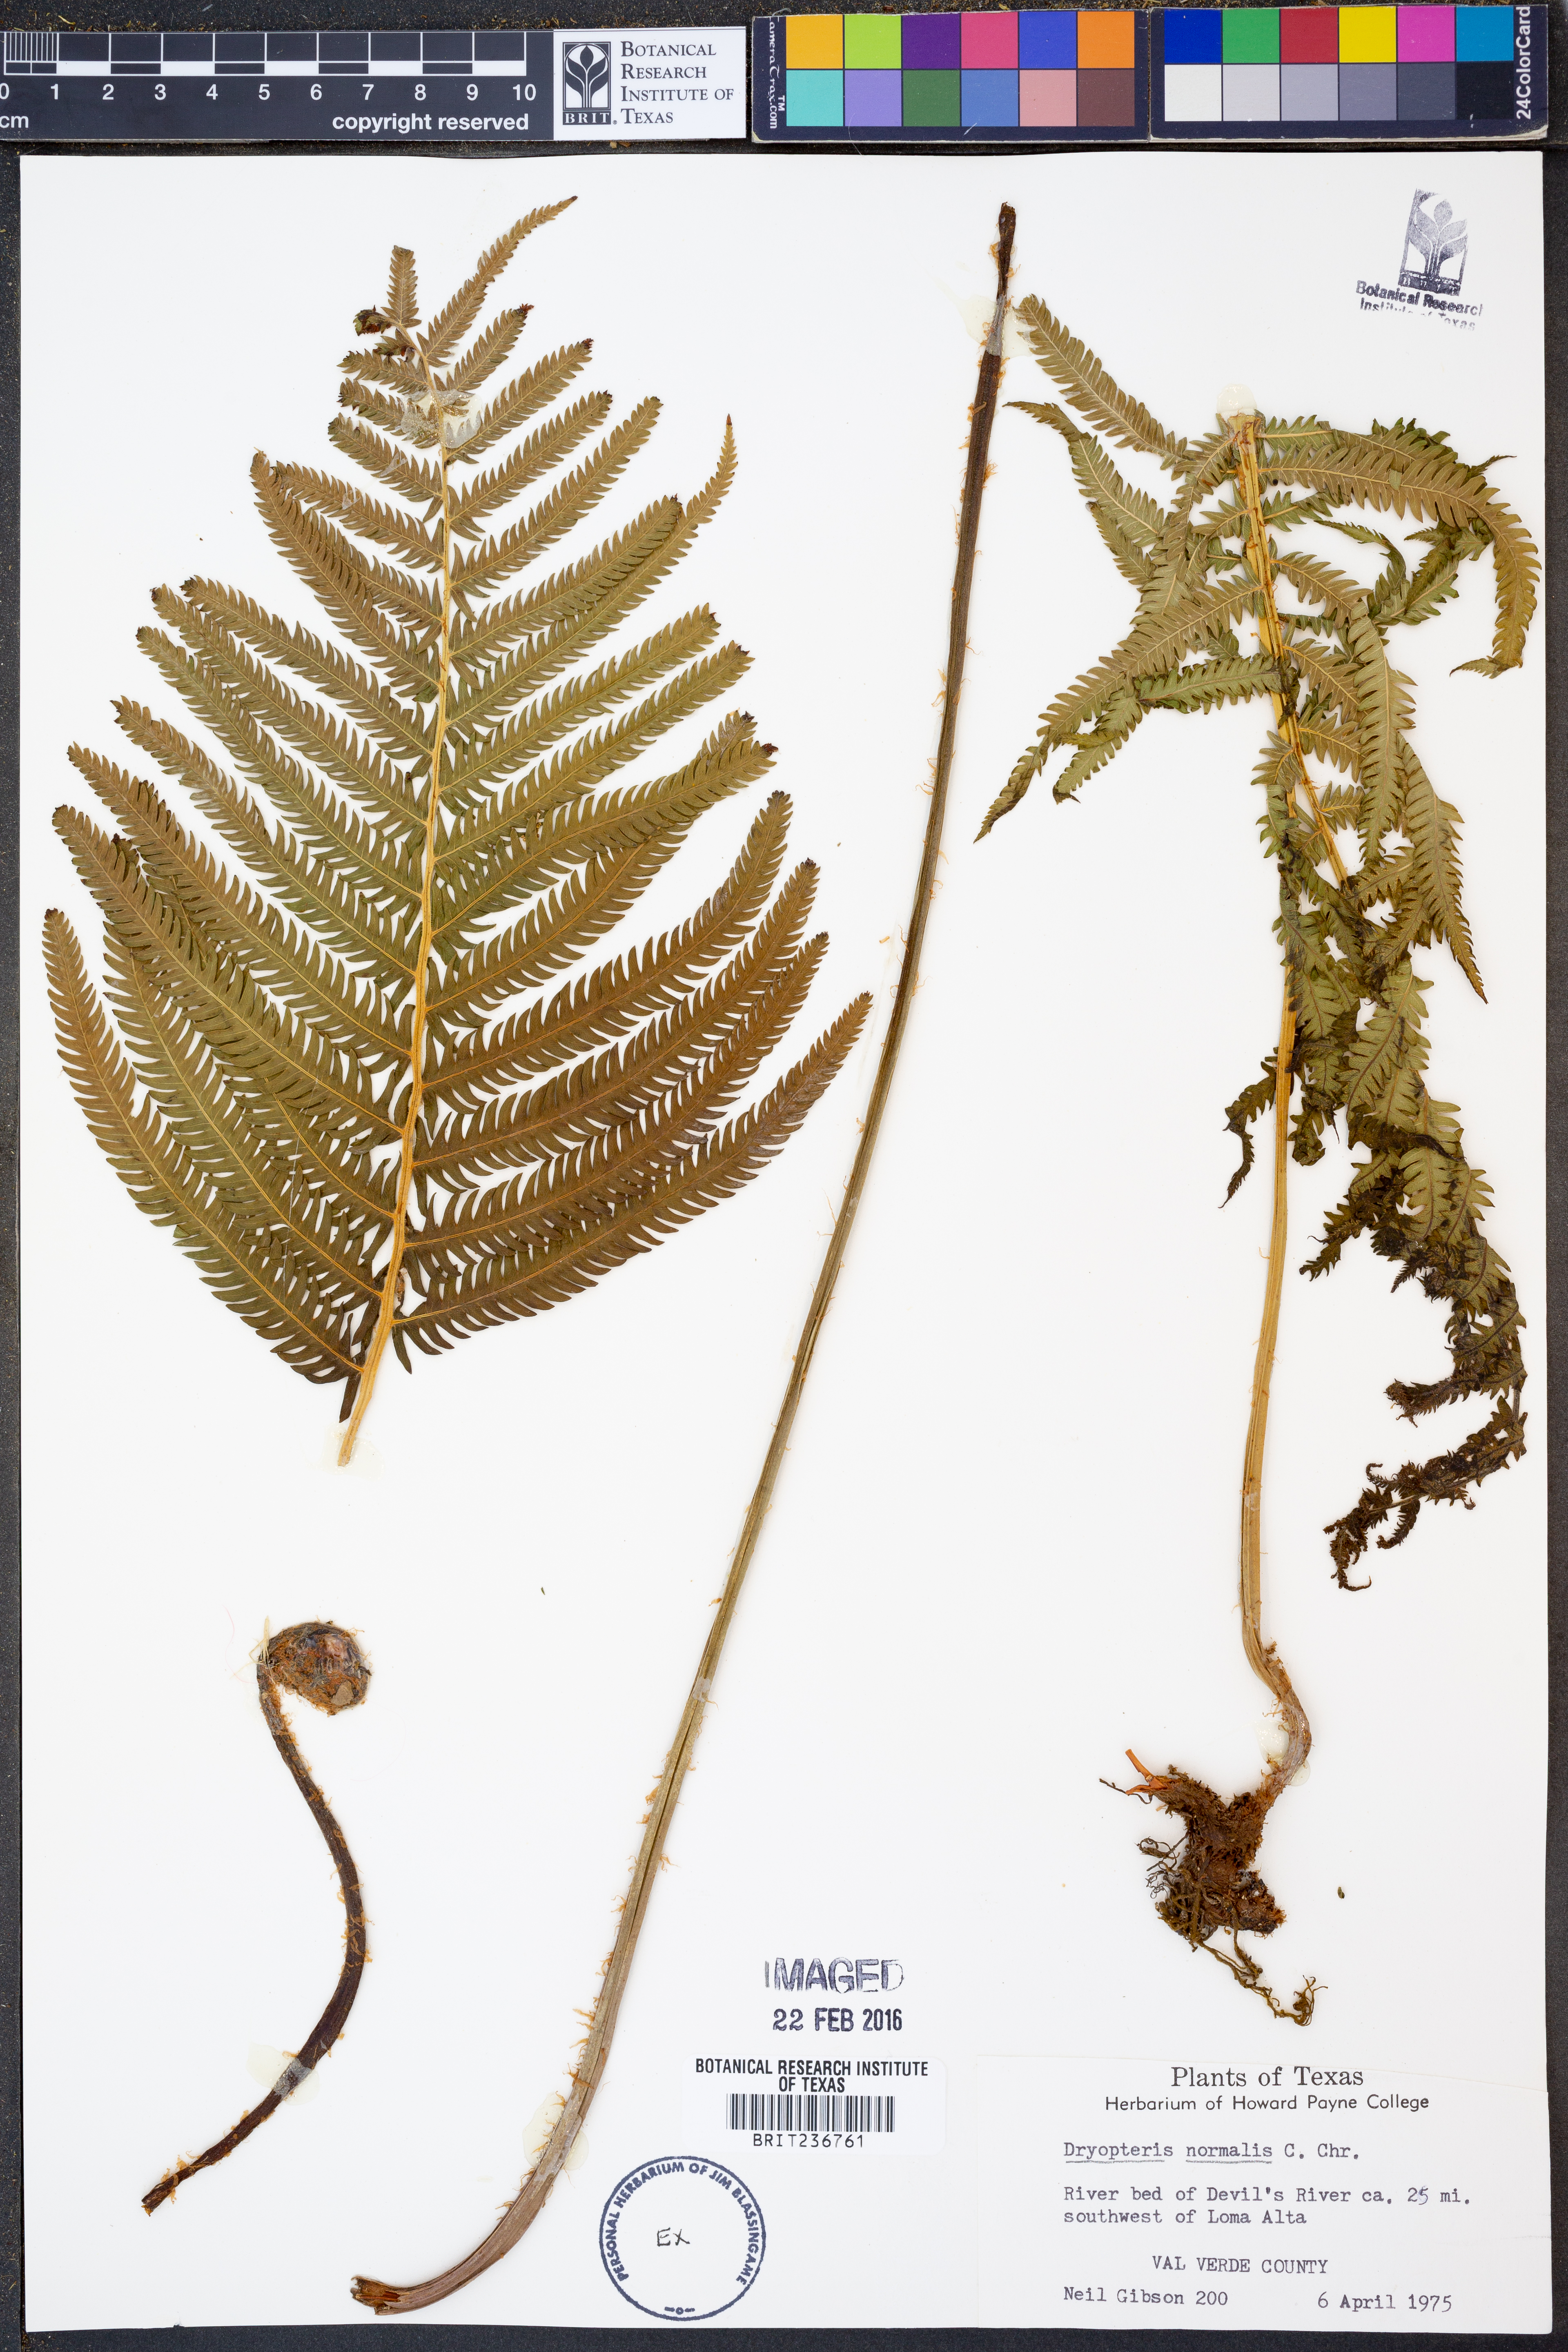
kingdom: Plantae
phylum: Tracheophyta
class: Polypodiopsida
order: Polypodiales
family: Thelypteridaceae
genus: Pelazoneuron
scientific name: Pelazoneuron kunthii
